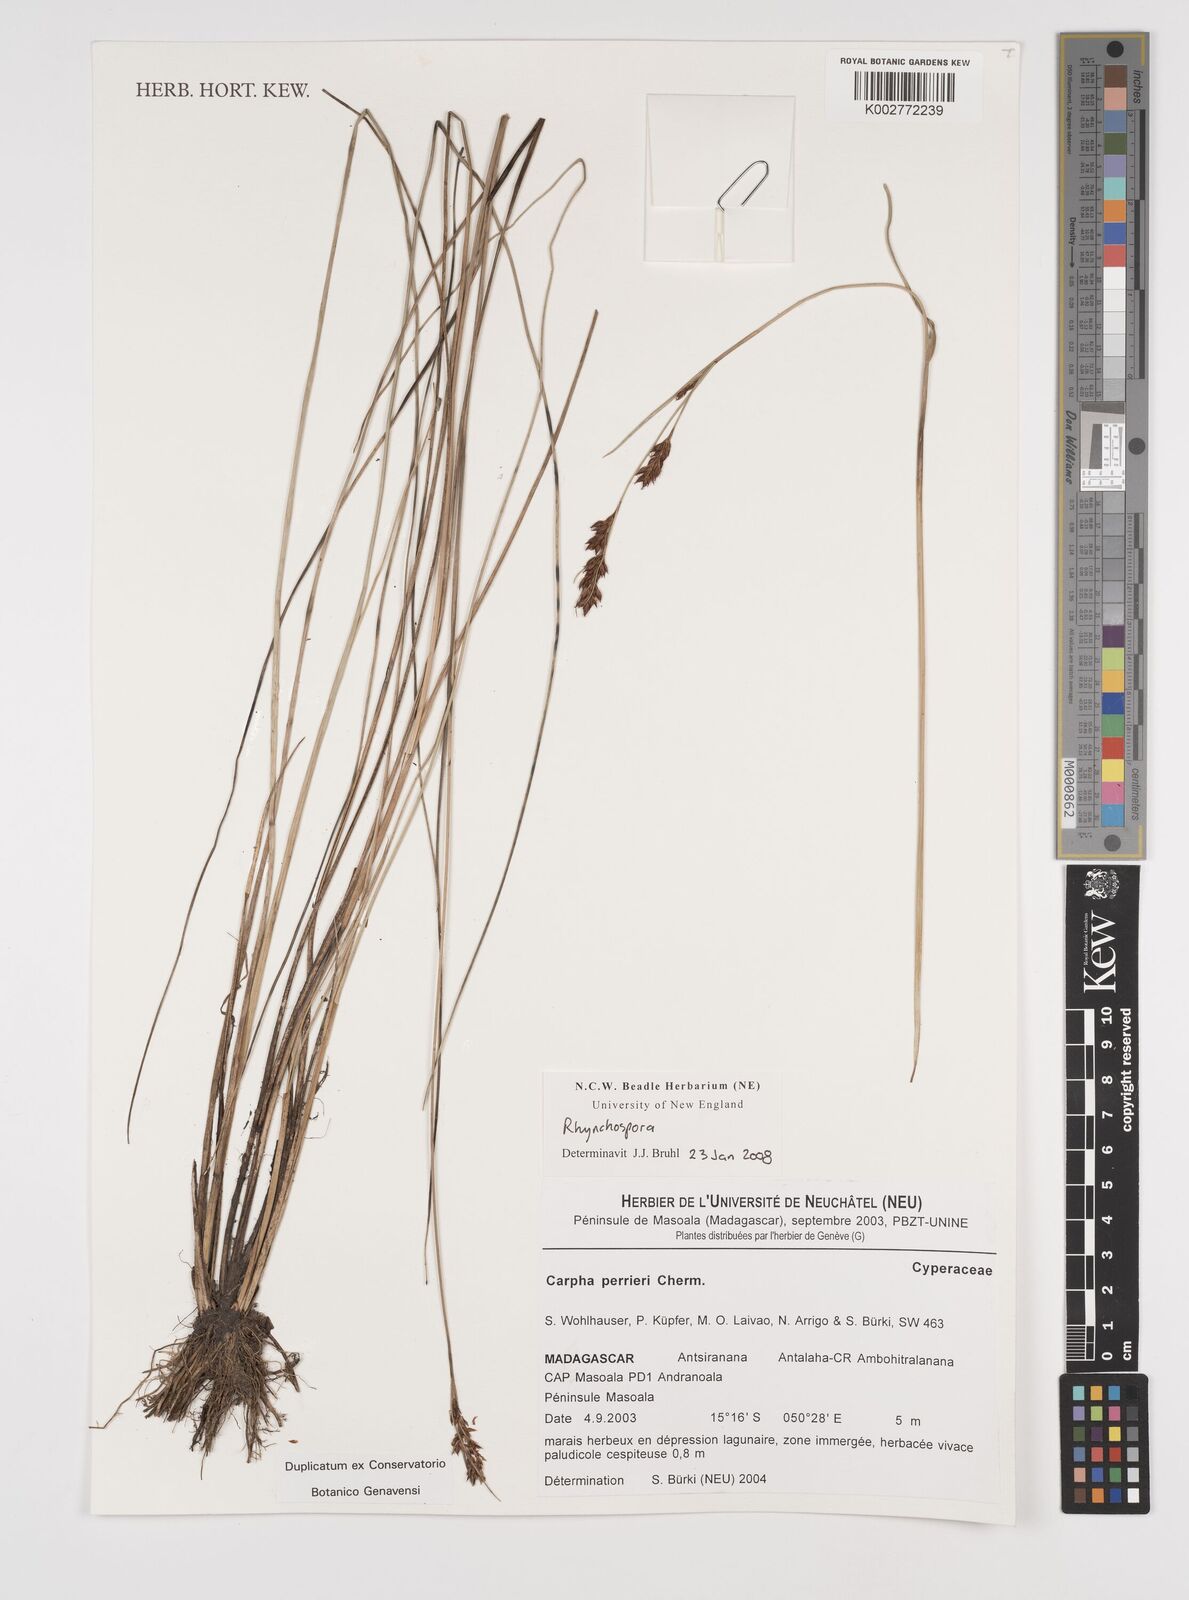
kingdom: Plantae
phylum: Tracheophyta
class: Liliopsida
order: Poales
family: Cyperaceae
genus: Rhynchospora
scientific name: Rhynchospora
